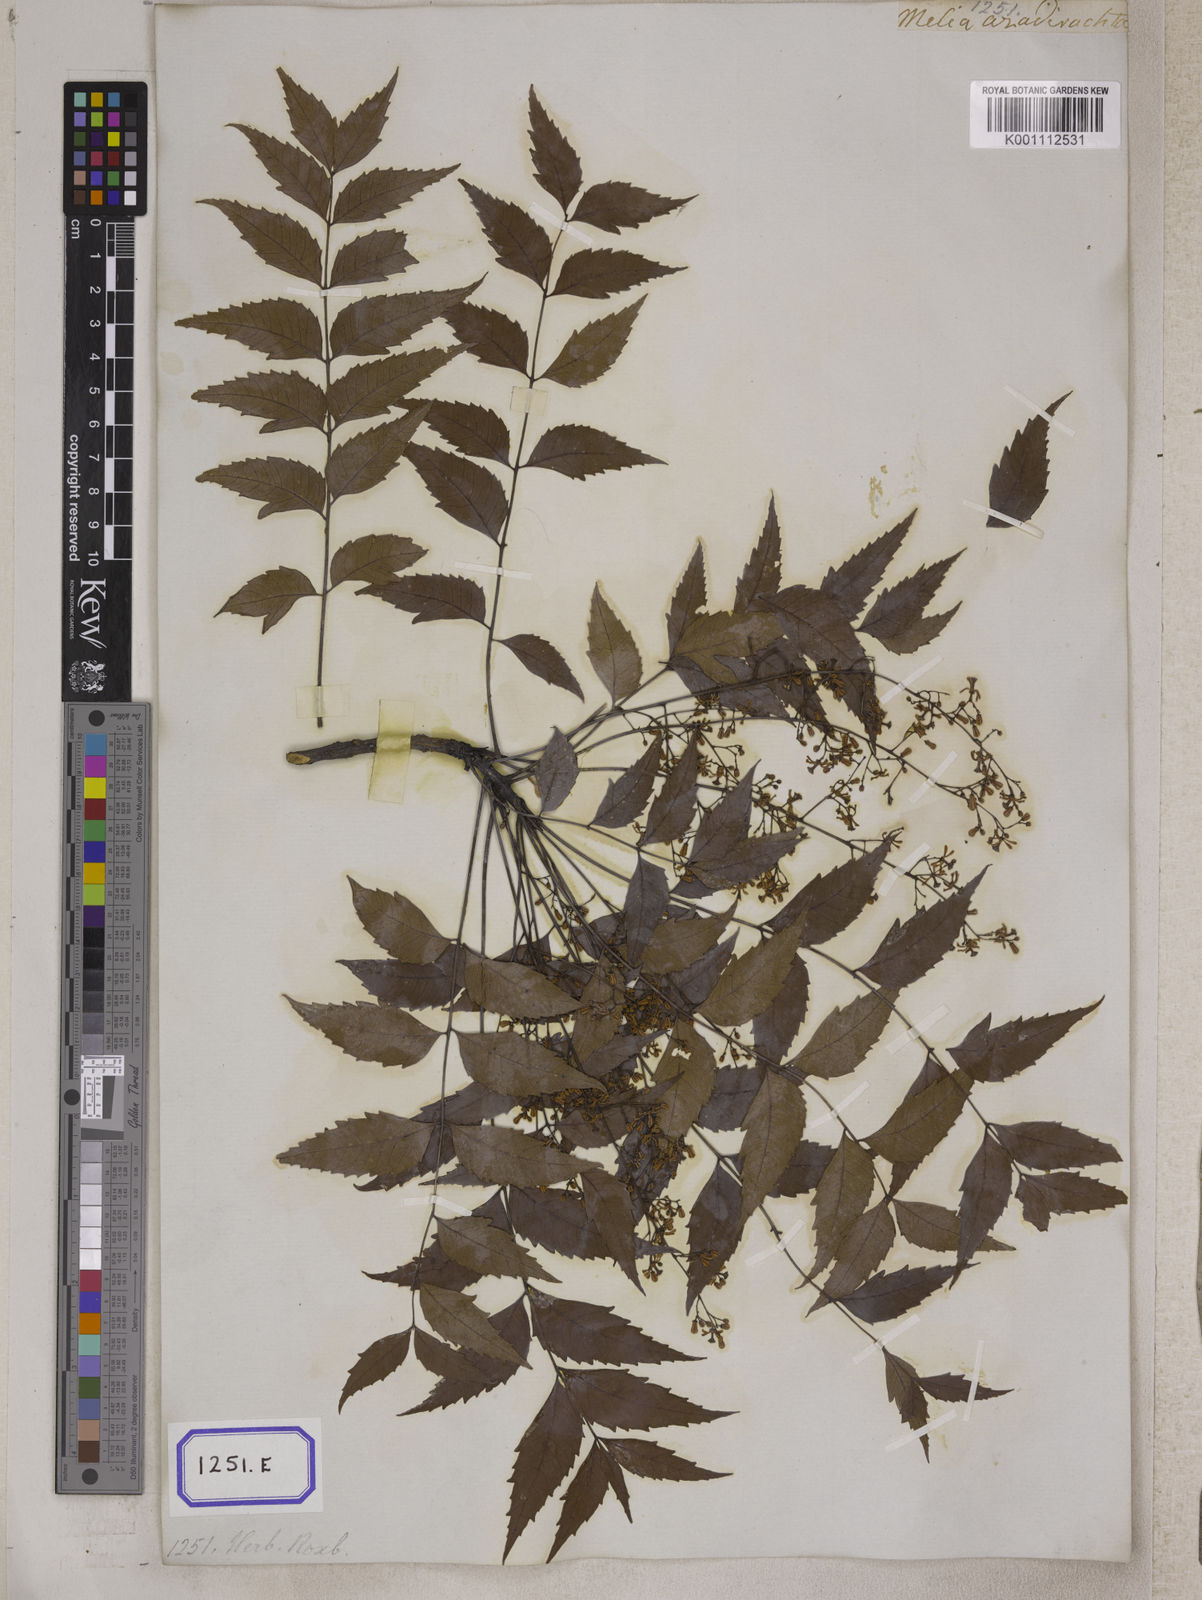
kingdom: Plantae
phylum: Tracheophyta
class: Magnoliopsida
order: Sapindales
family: Meliaceae
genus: Azadirachta
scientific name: Azadirachta indica
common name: Neem
